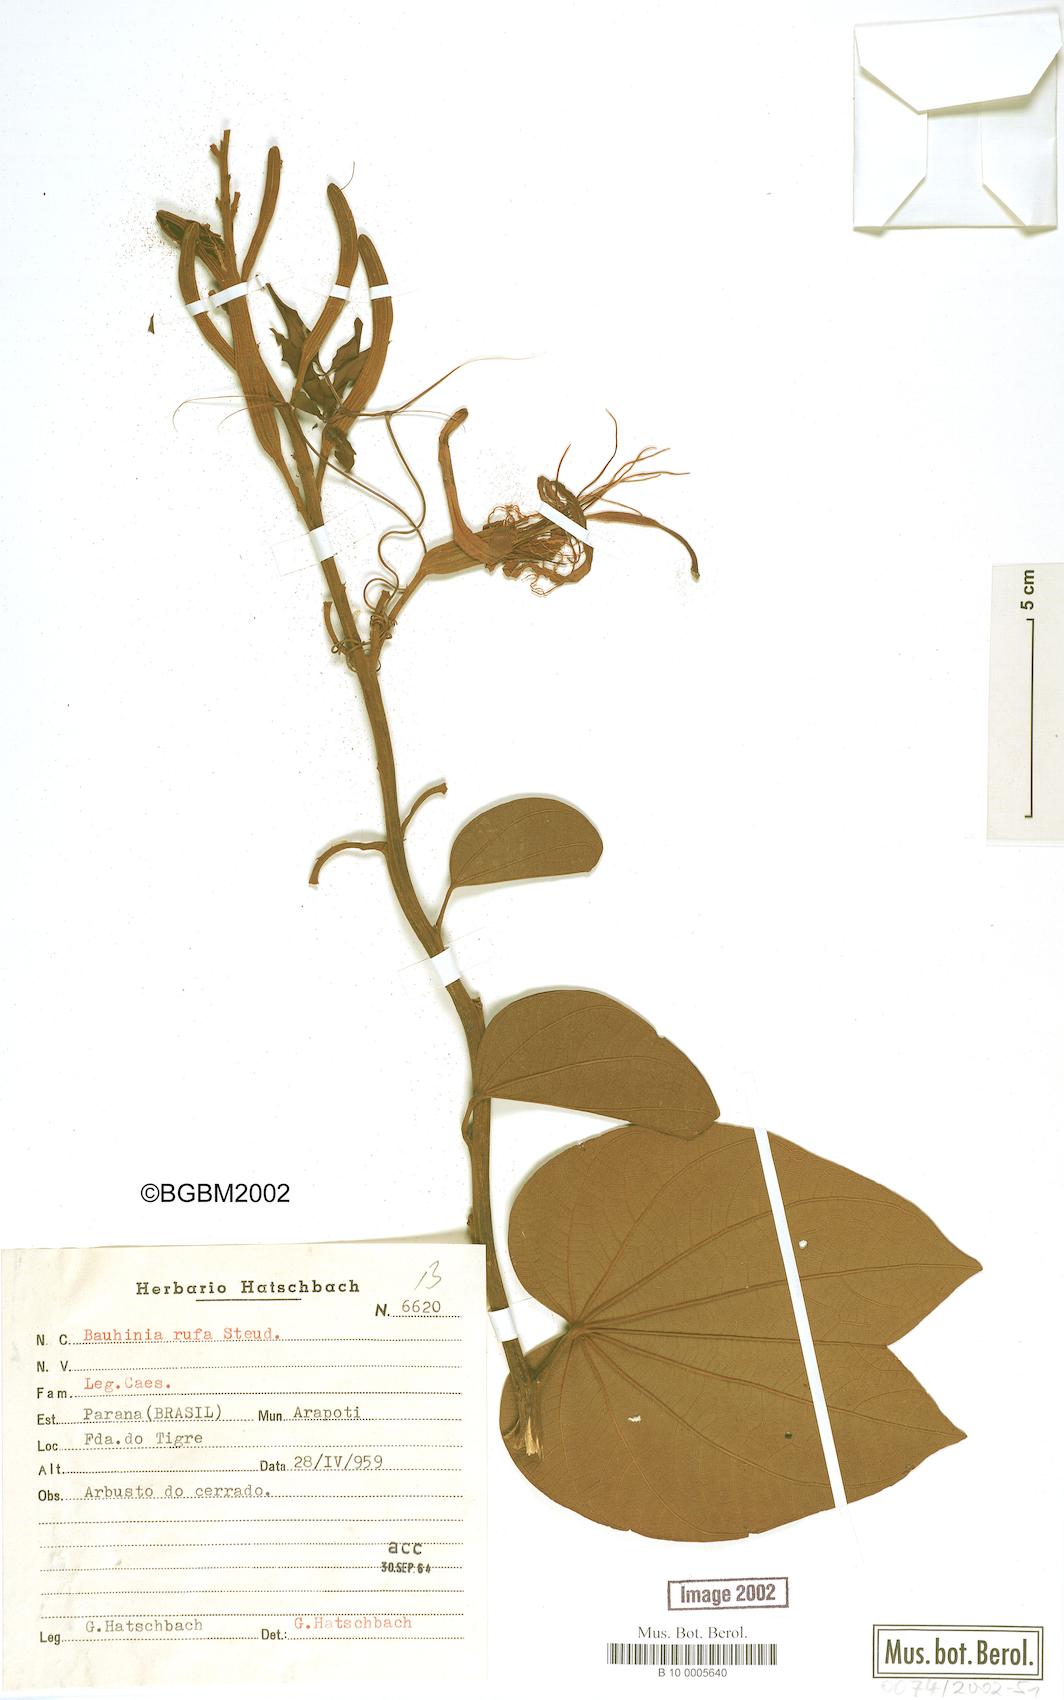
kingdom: Plantae
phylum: Tracheophyta
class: Magnoliopsida
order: Fabales
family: Fabaceae
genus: Bauhinia
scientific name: Bauhinia rufa
